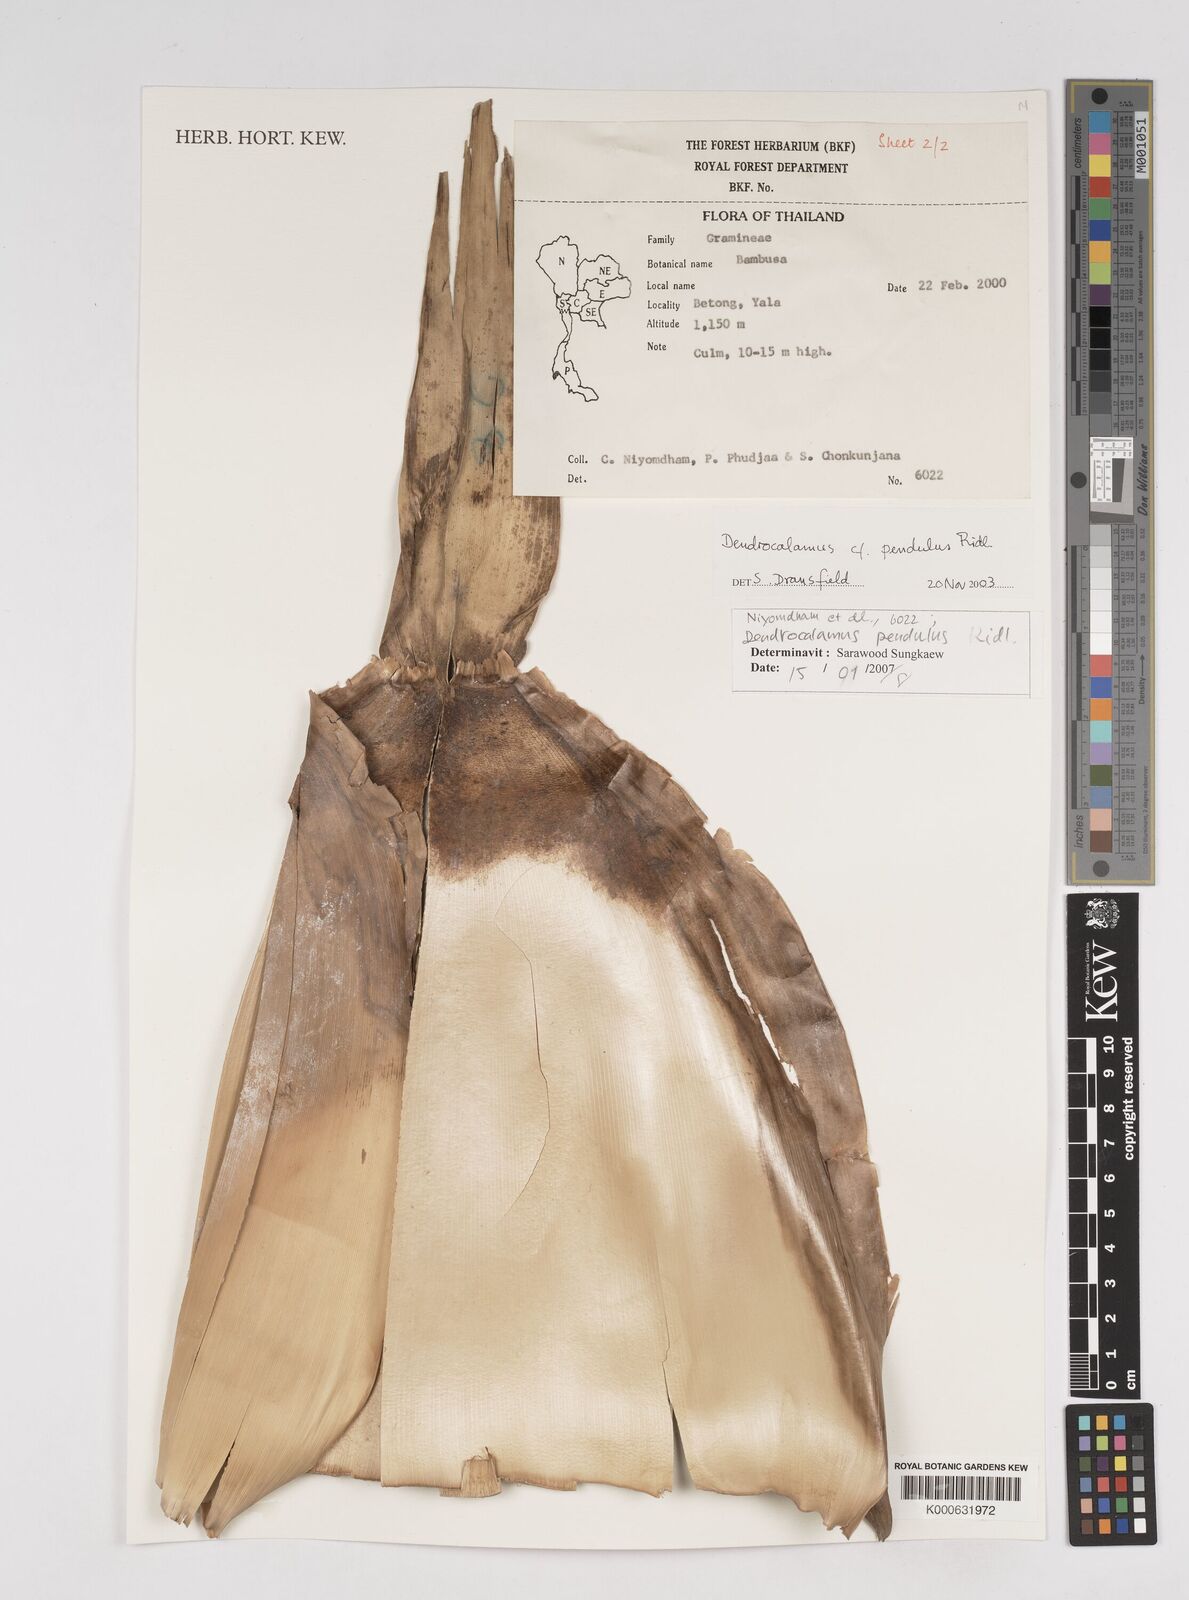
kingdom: Plantae
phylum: Tracheophyta
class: Liliopsida
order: Poales
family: Poaceae
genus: Dendrocalamus
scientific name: Dendrocalamus pendulus
